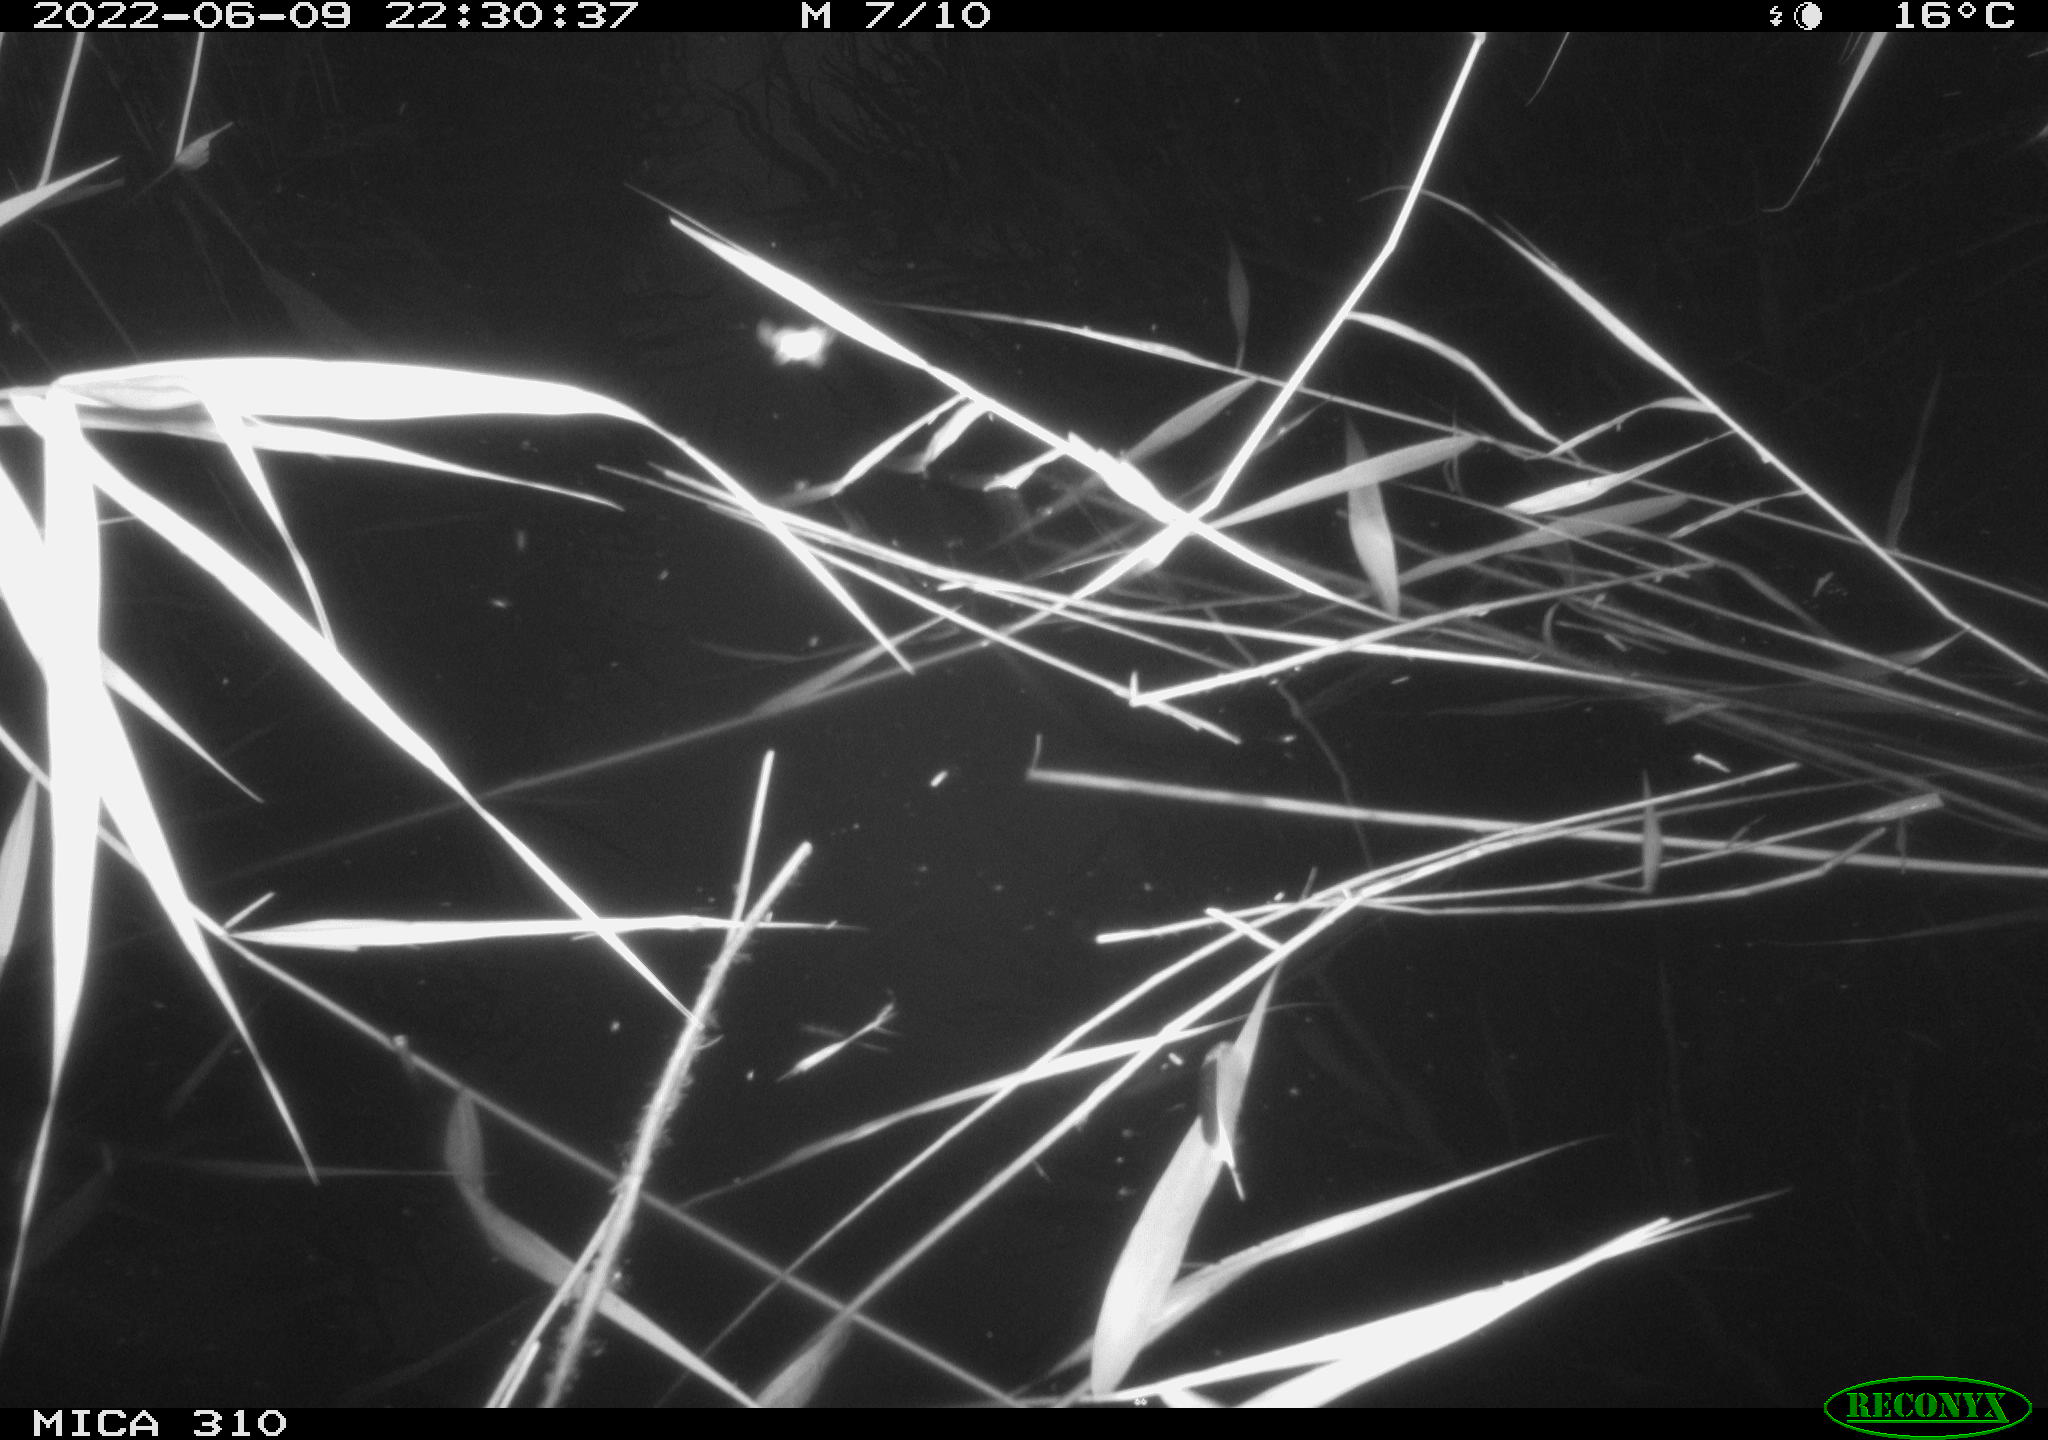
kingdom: Animalia
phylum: Chordata
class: Aves
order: Anseriformes
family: Anatidae
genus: Anas
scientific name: Anas platyrhynchos
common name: Mallard
